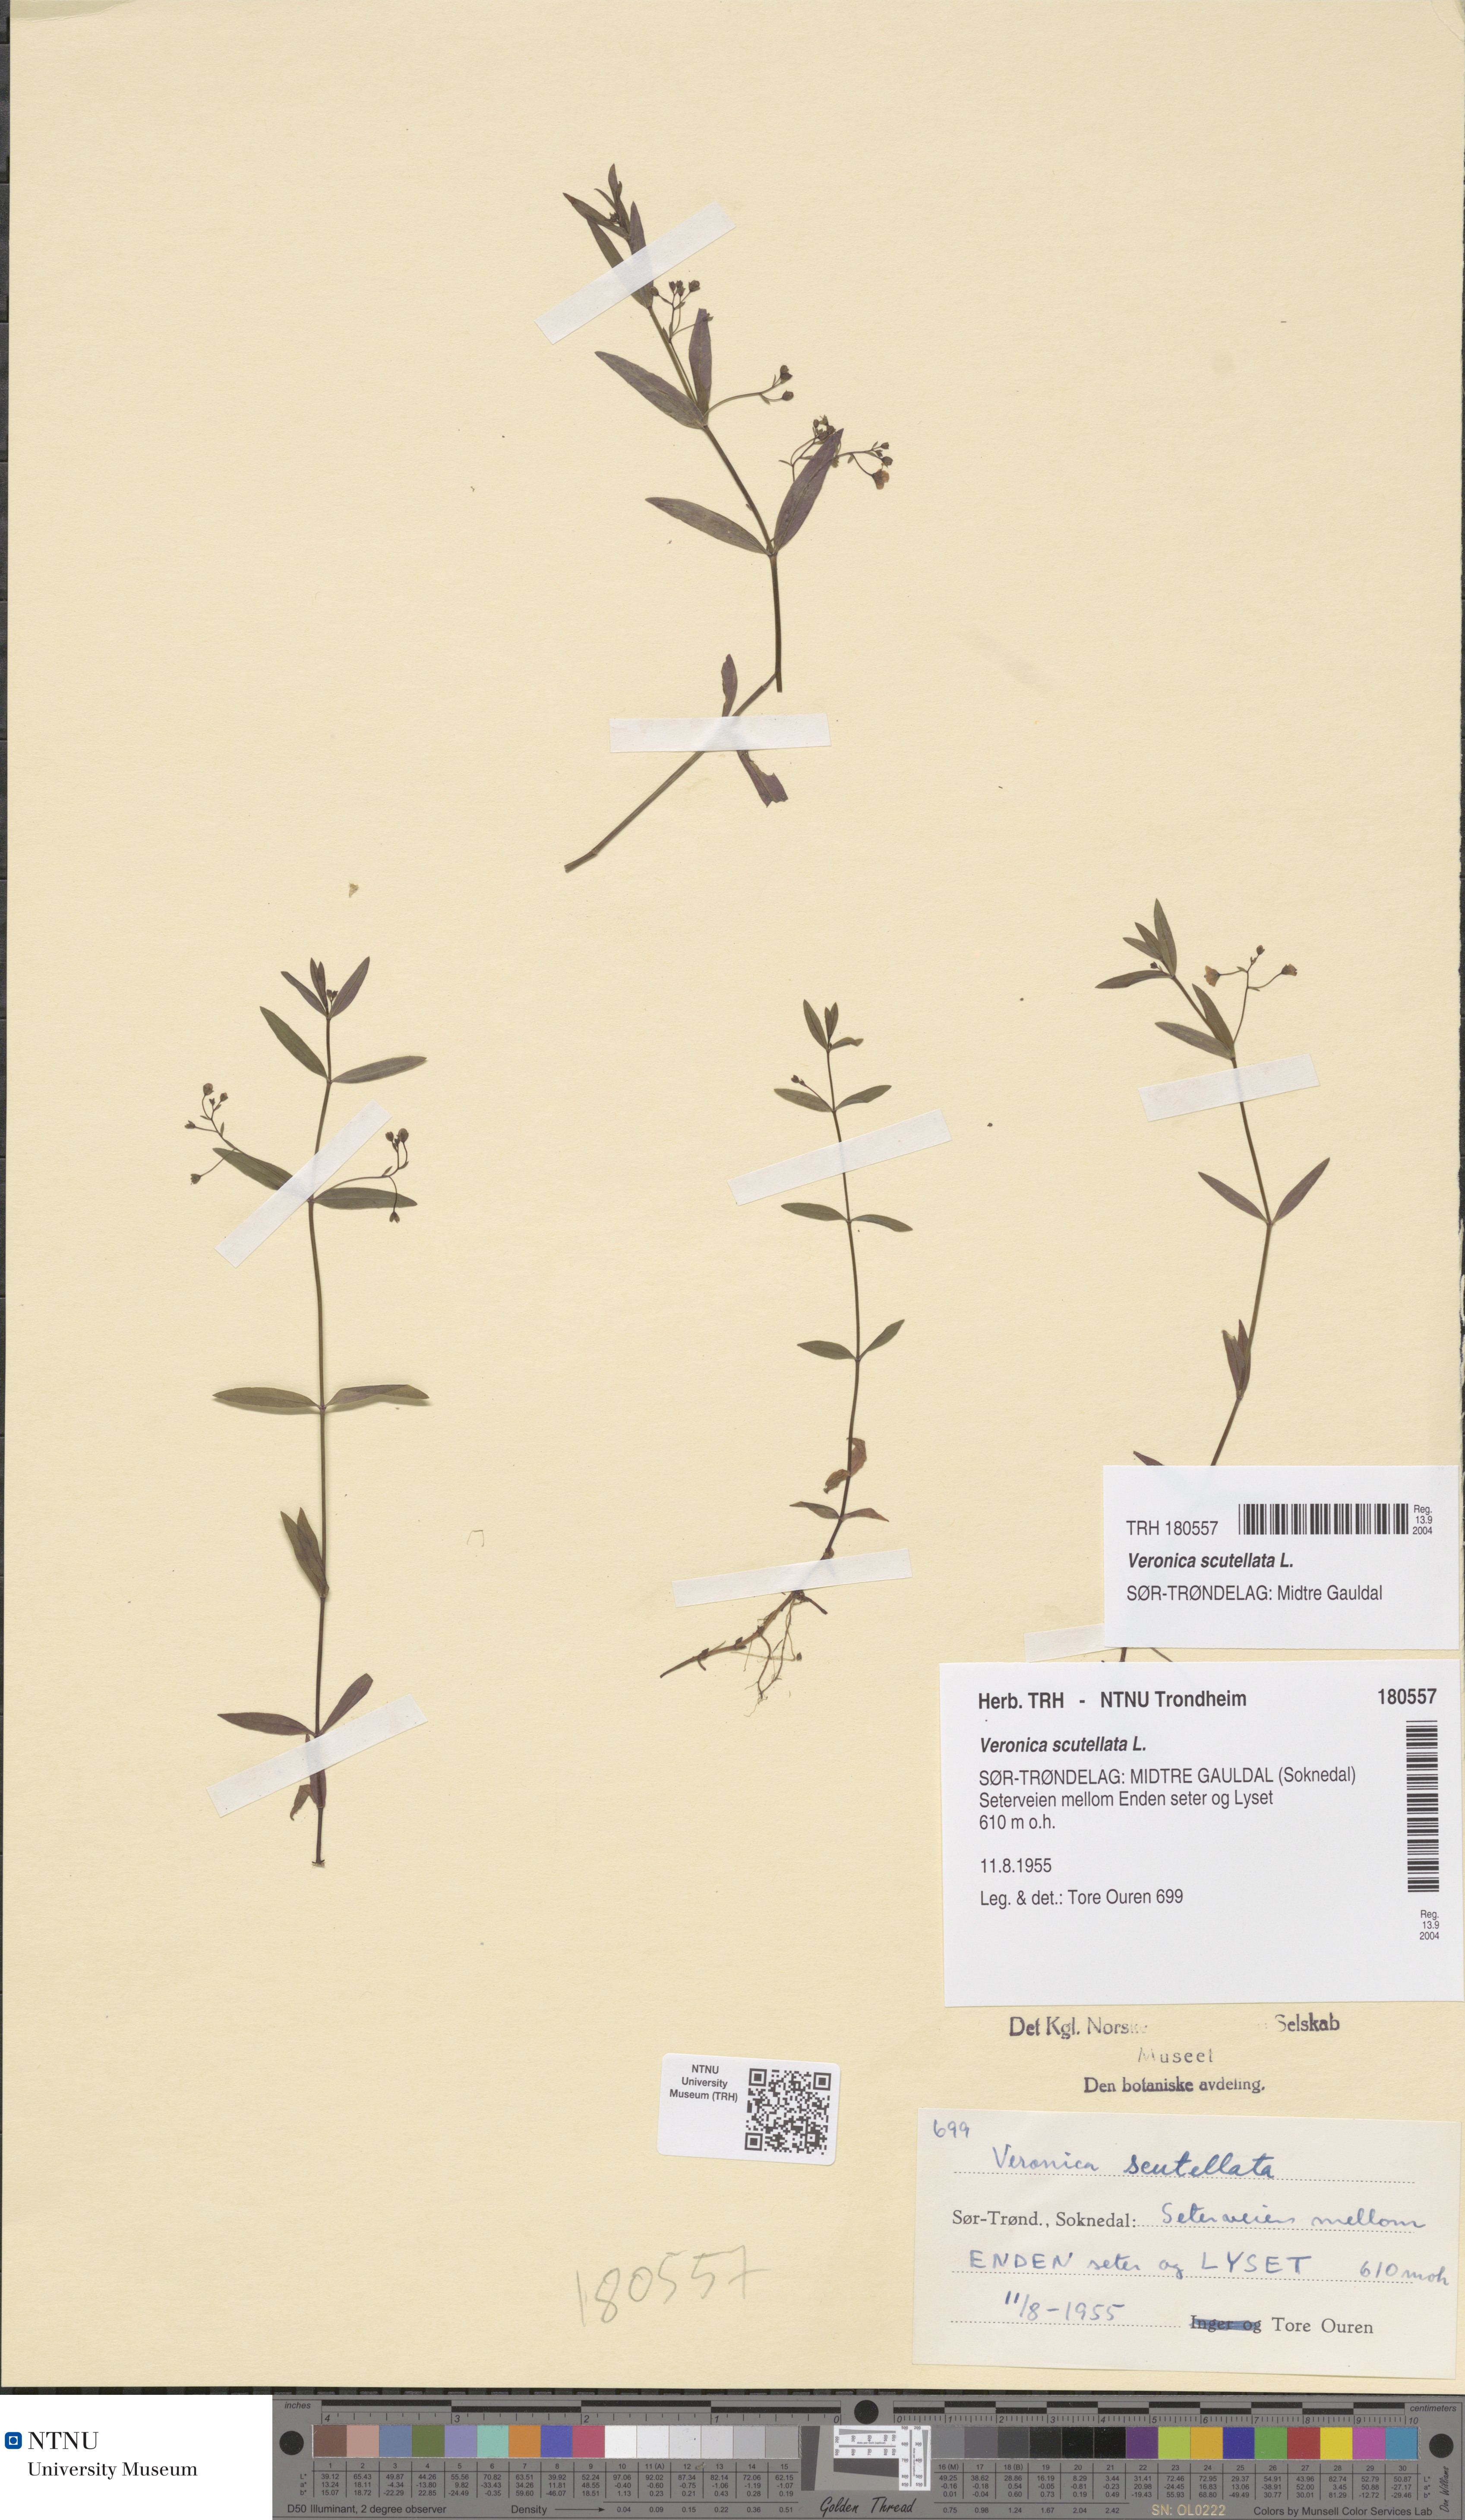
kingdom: Plantae
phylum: Tracheophyta
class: Magnoliopsida
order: Lamiales
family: Plantaginaceae
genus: Veronica
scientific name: Veronica scutellata
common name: Marsh speedwell
